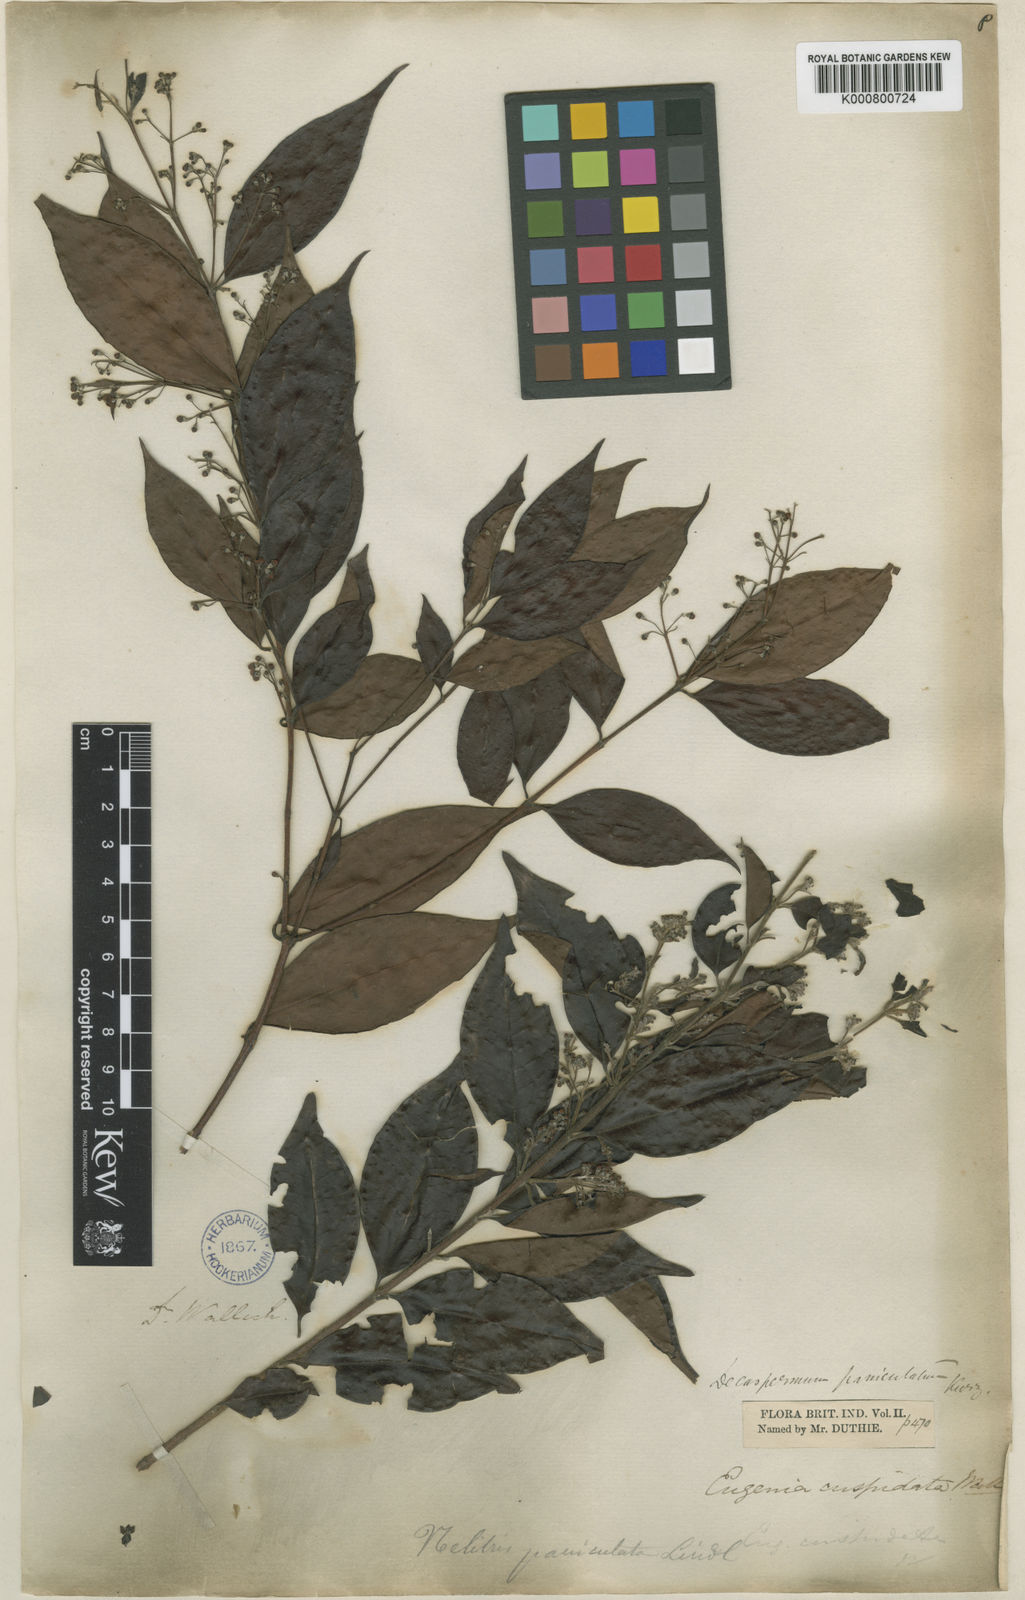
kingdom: Plantae
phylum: Tracheophyta
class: Magnoliopsida
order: Myrtales
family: Myrtaceae
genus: Decaspermum
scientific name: Decaspermum parviflorum
